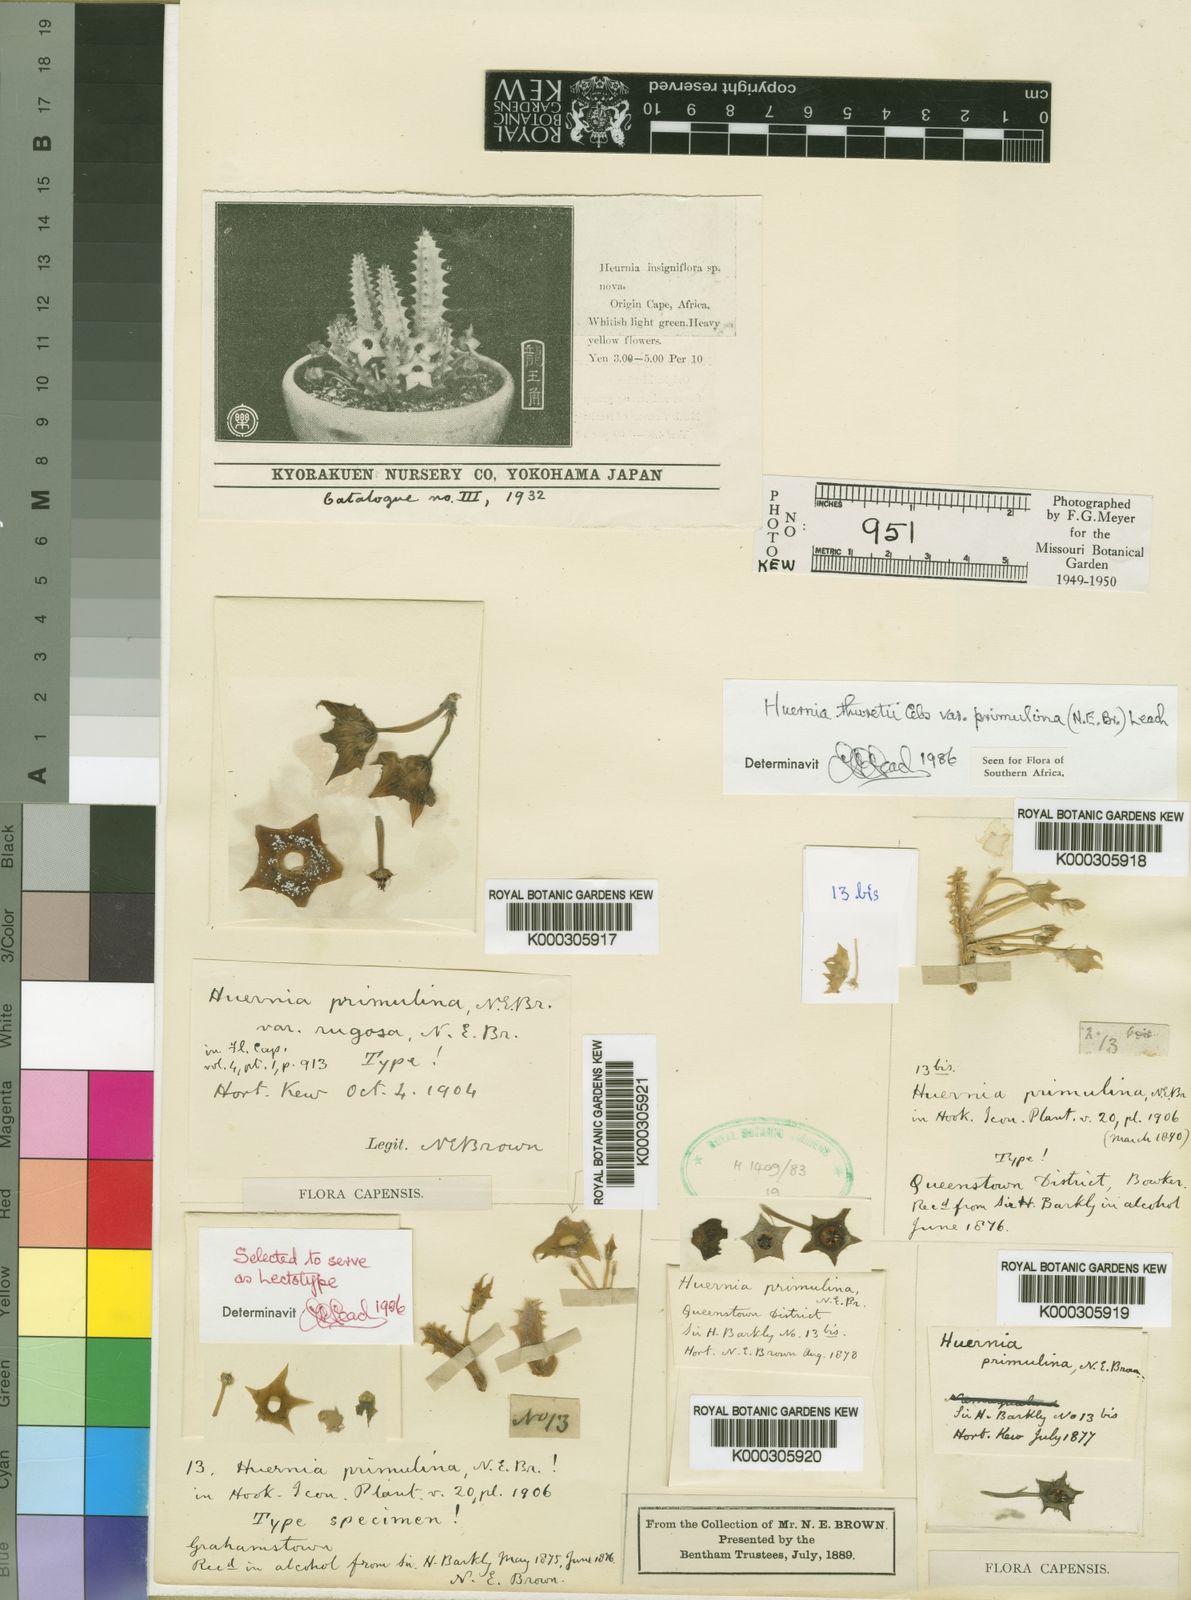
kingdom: Plantae
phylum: Tracheophyta
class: Magnoliopsida
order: Gentianales
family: Apocynaceae
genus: Ceropegia
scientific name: Ceropegia thuretii
